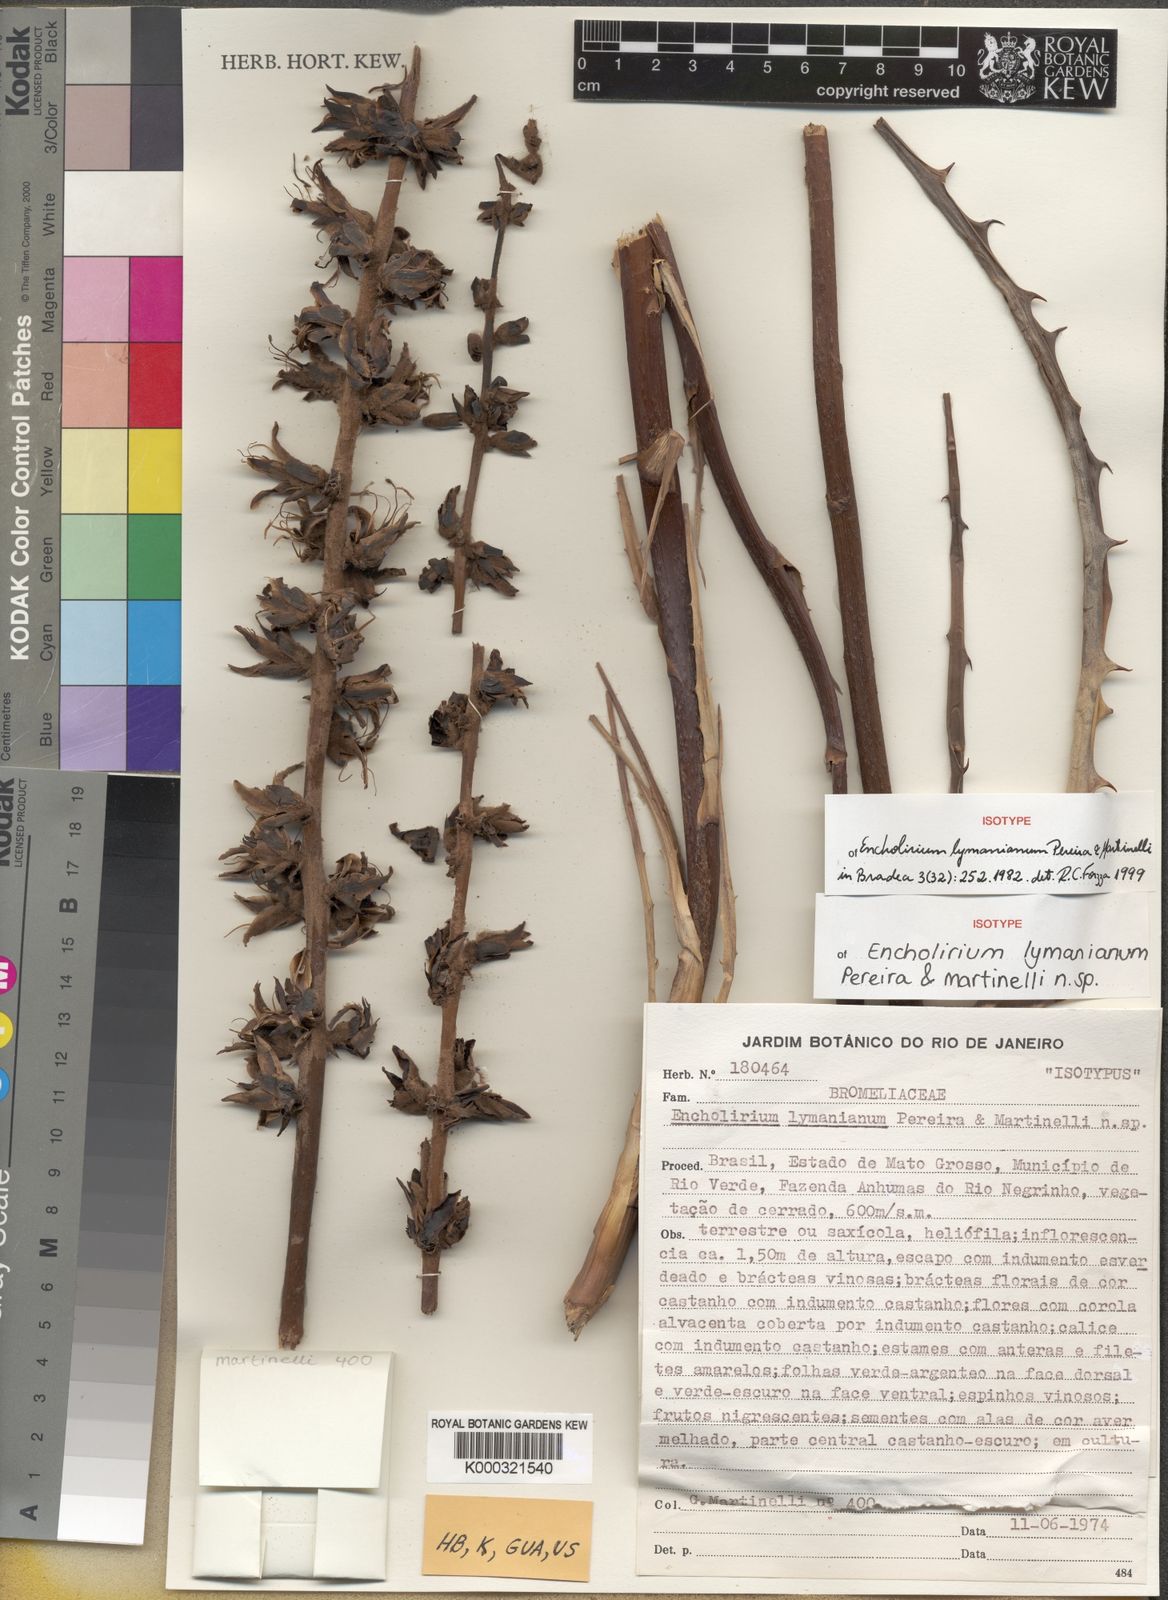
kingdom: Plantae
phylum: Tracheophyta
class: Liliopsida
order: Poales
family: Bromeliaceae
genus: Encholirium
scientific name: Encholirium lymanianum
